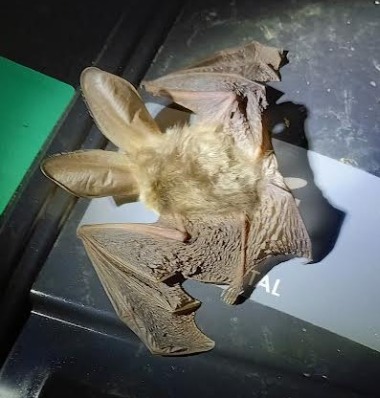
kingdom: Animalia
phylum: Chordata
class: Mammalia
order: Chiroptera
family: Vespertilionidae
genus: Plecotus
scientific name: Plecotus auritus
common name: Brun langøre
